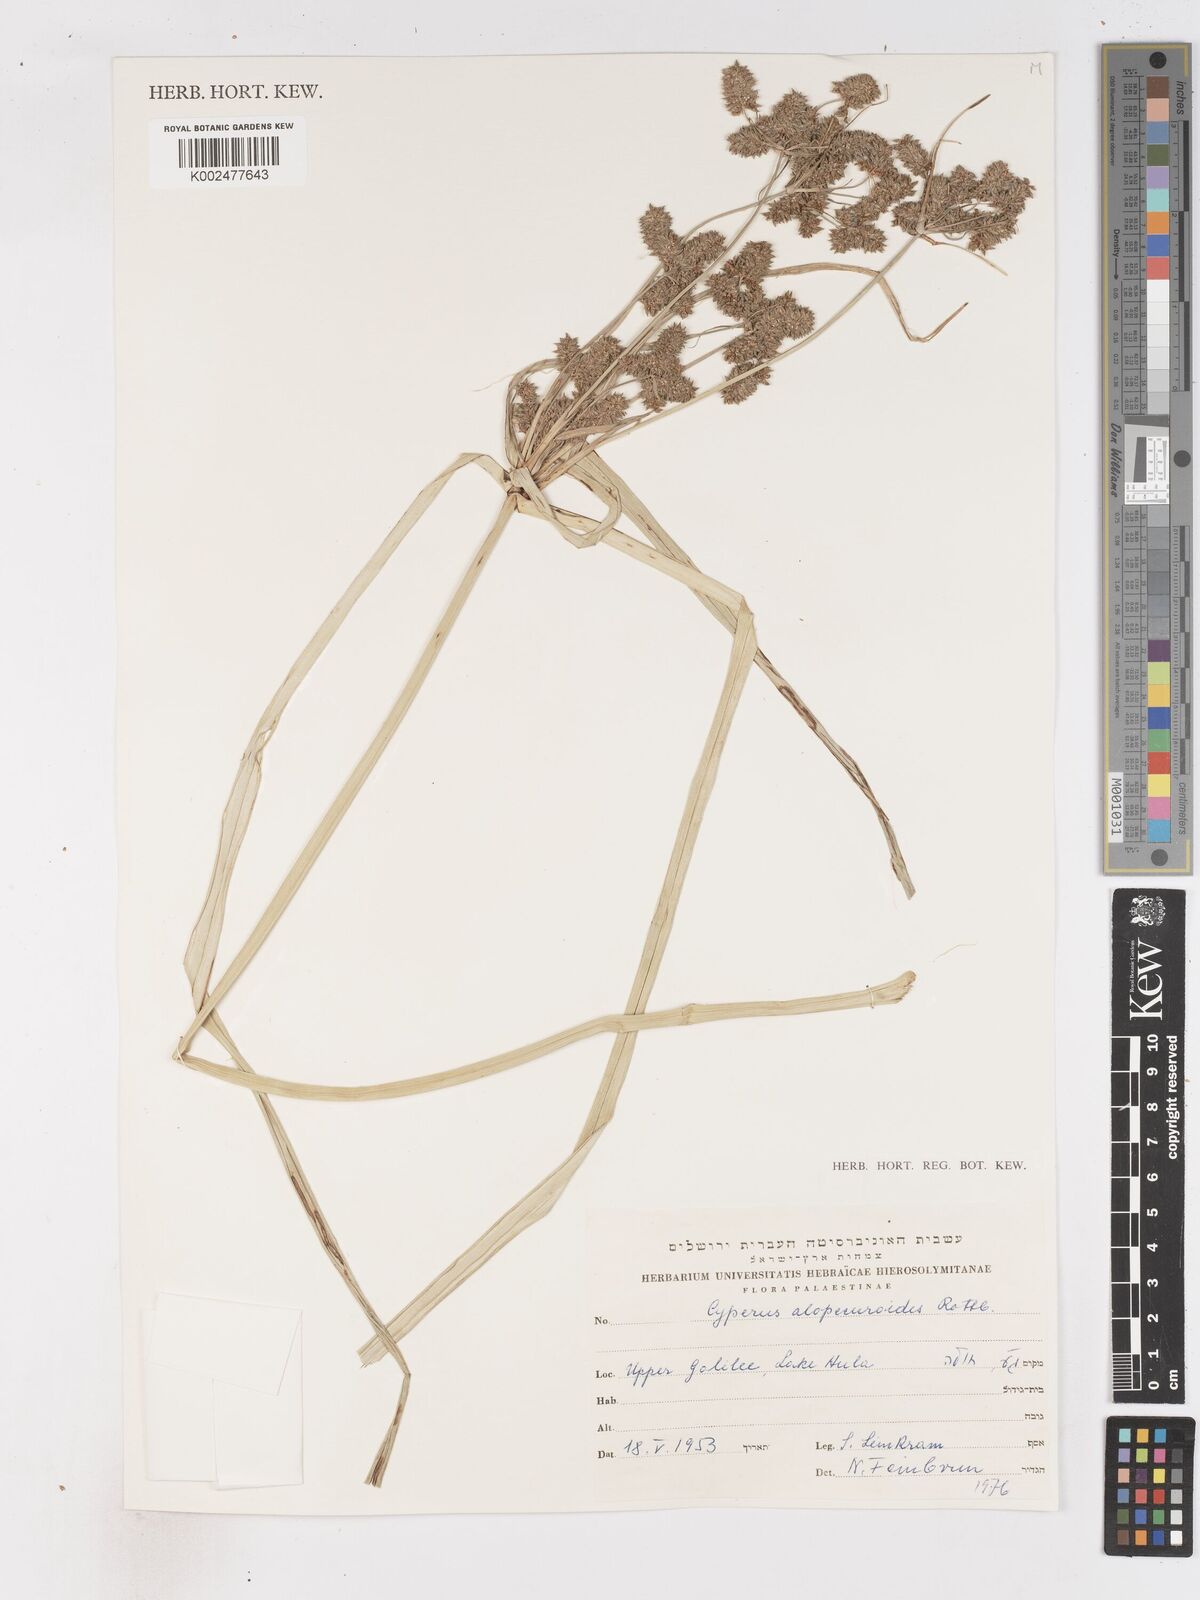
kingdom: Plantae
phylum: Tracheophyta
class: Liliopsida
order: Poales
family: Cyperaceae
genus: Cyperus
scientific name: Cyperus alopecuroides
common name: Foxtail flatsedge
